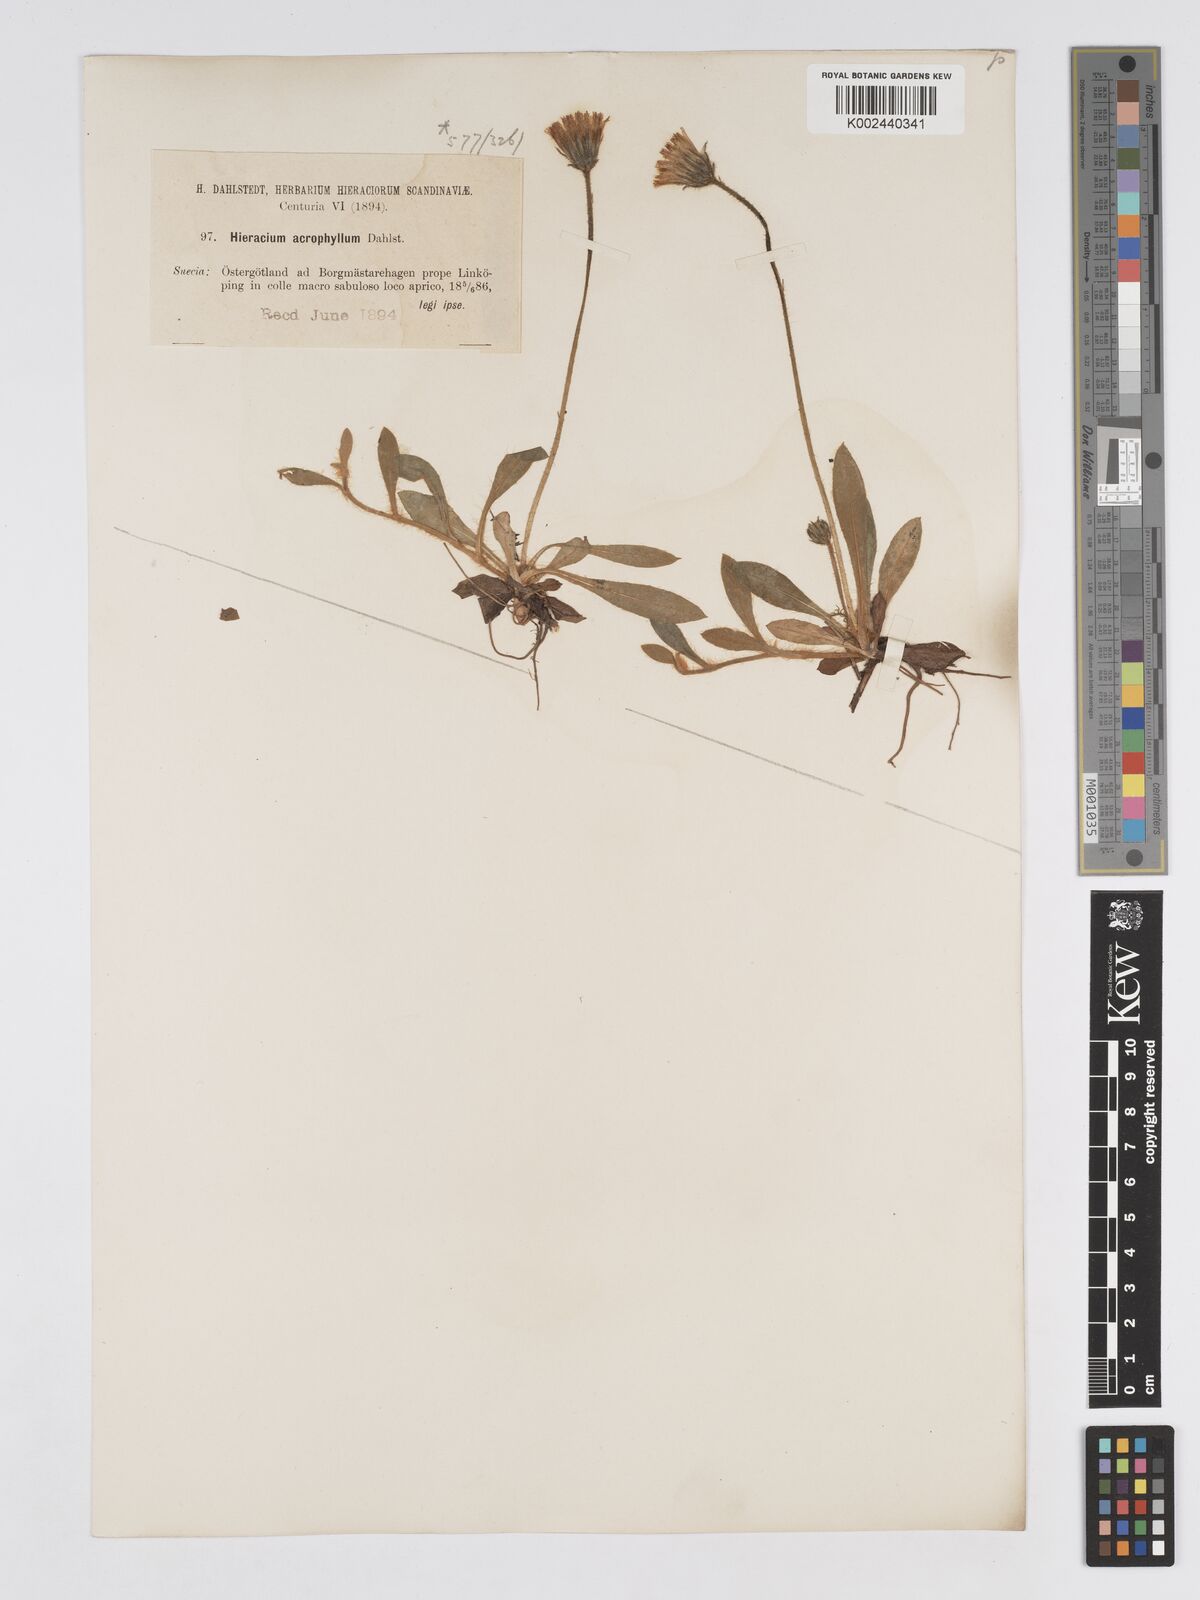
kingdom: Plantae
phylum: Tracheophyta
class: Magnoliopsida
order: Asterales
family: Asteraceae
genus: Pilosella
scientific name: Pilosella officinarum
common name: Mouse-ear hawkweed
